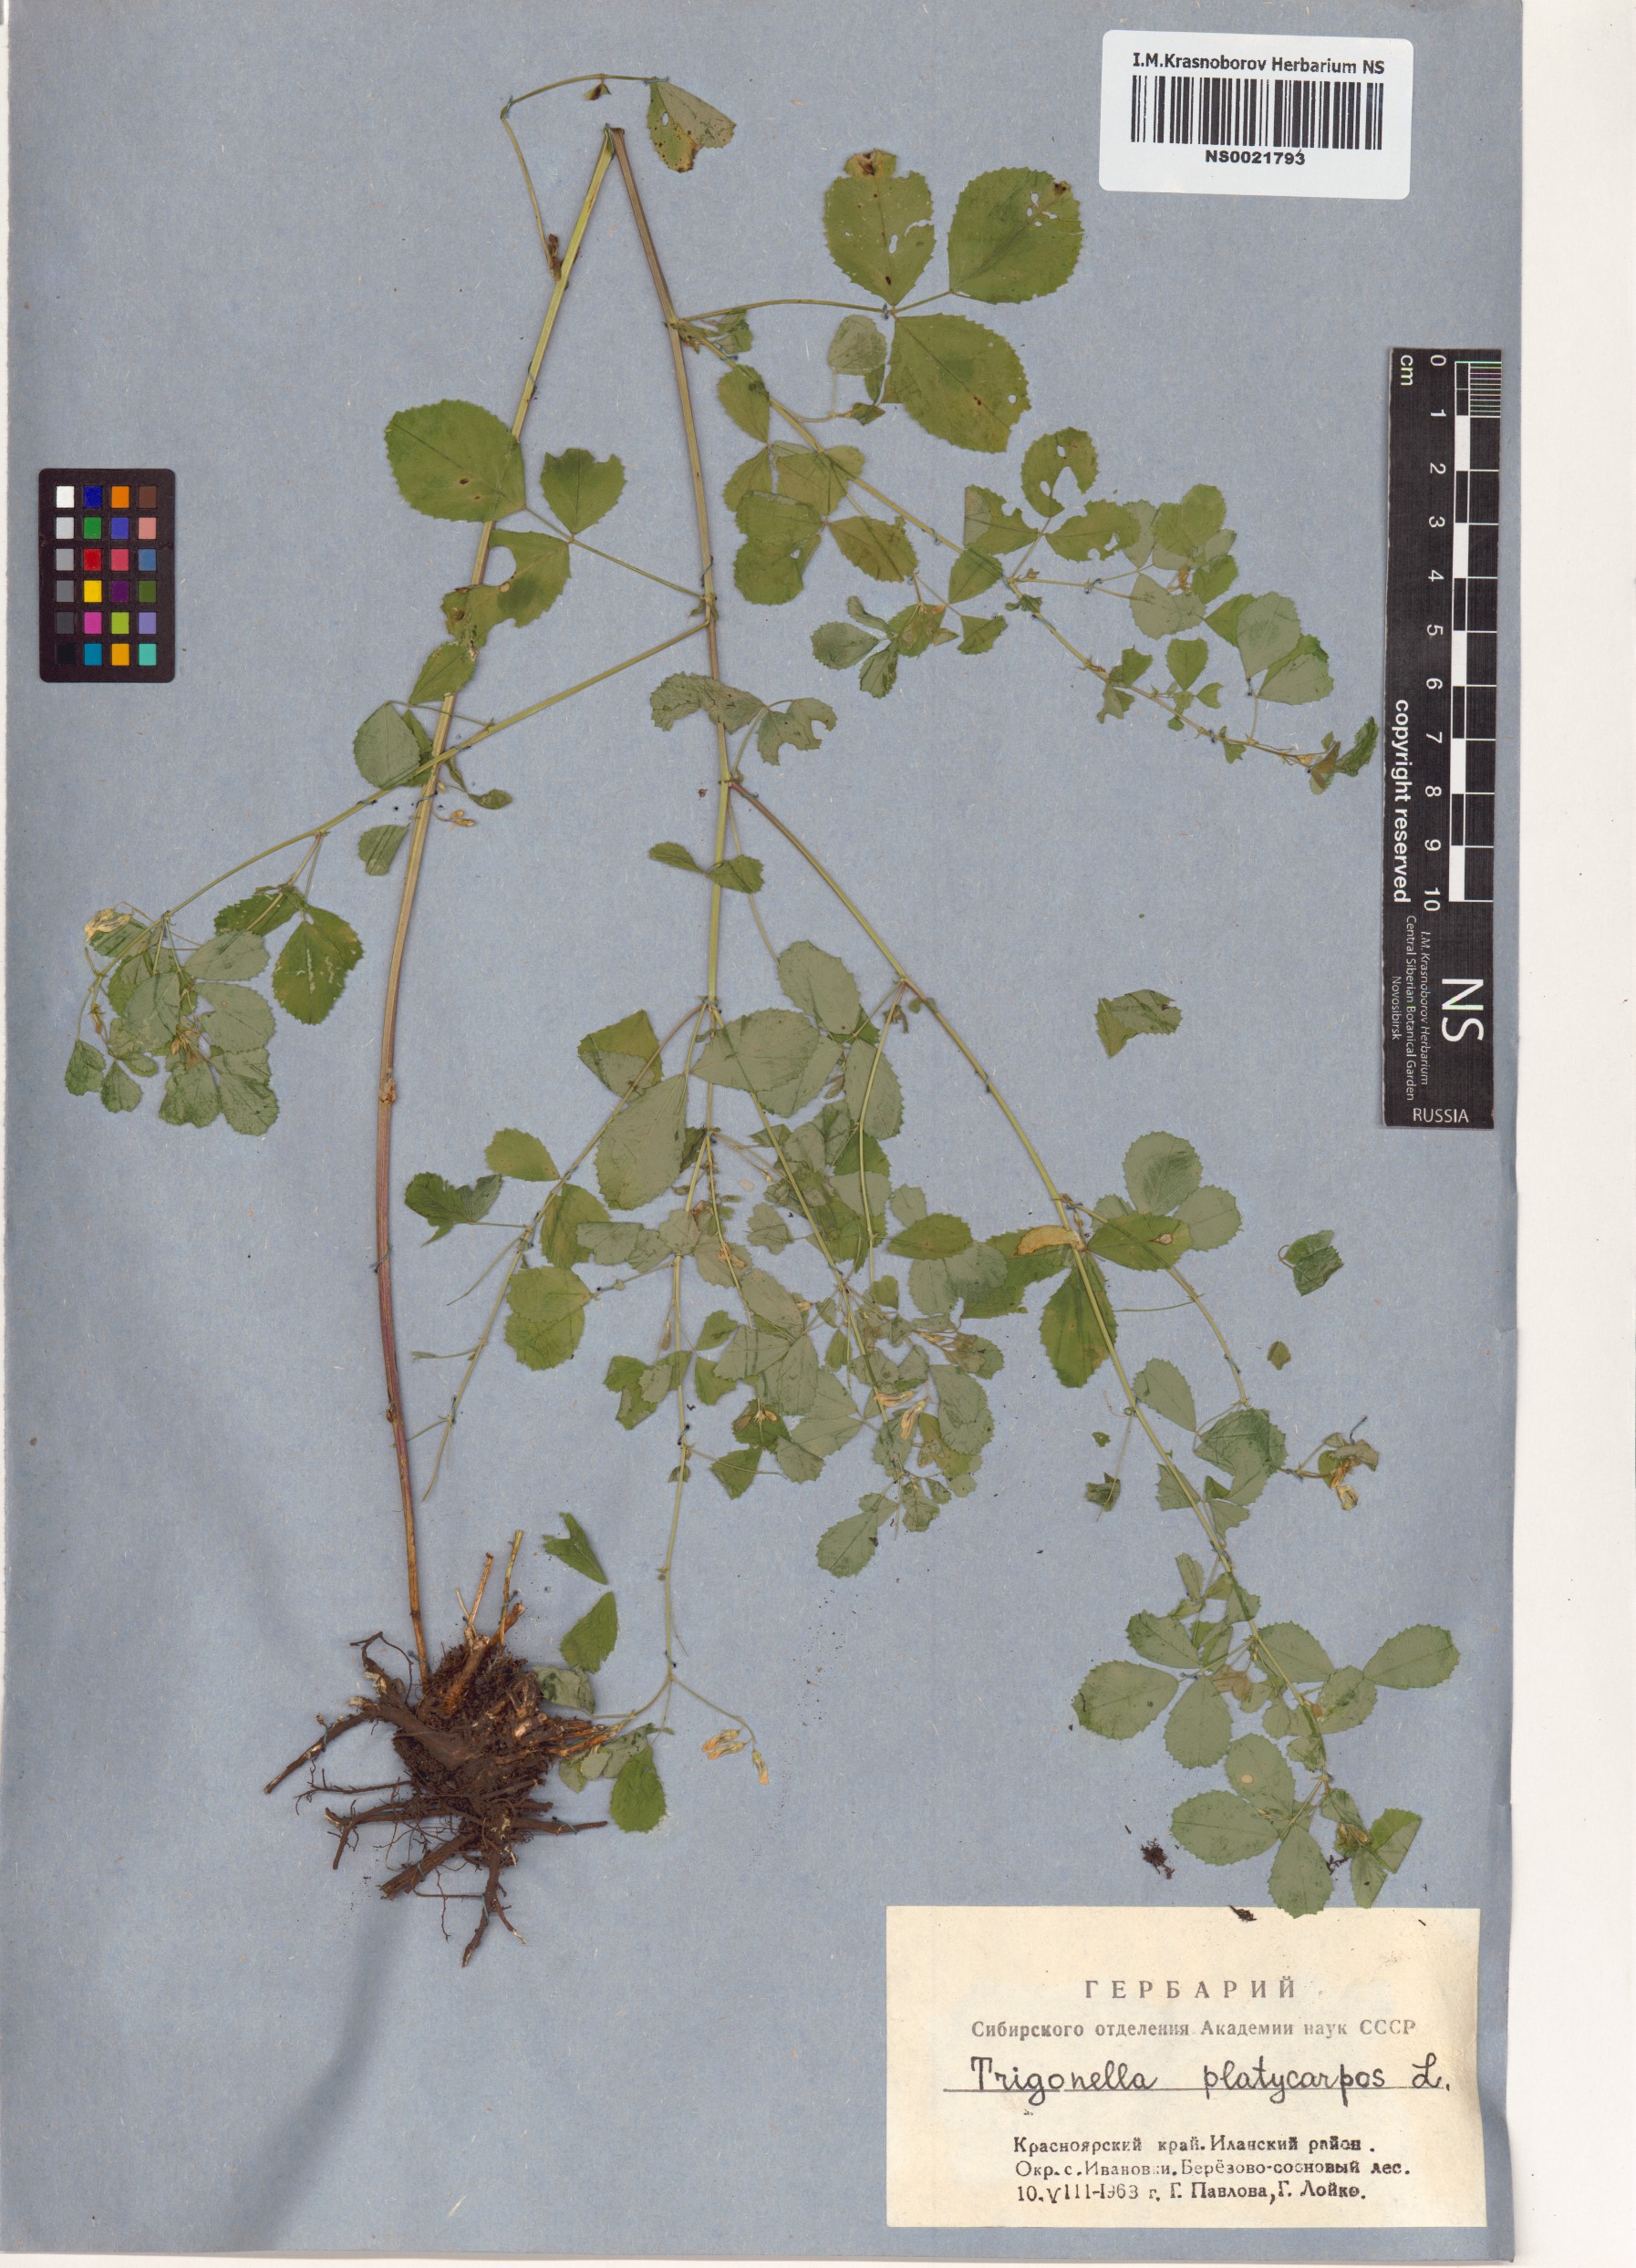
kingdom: Plantae
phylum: Tracheophyta
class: Magnoliopsida
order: Fabales
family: Fabaceae
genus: Medicago
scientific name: Medicago platycarpos
